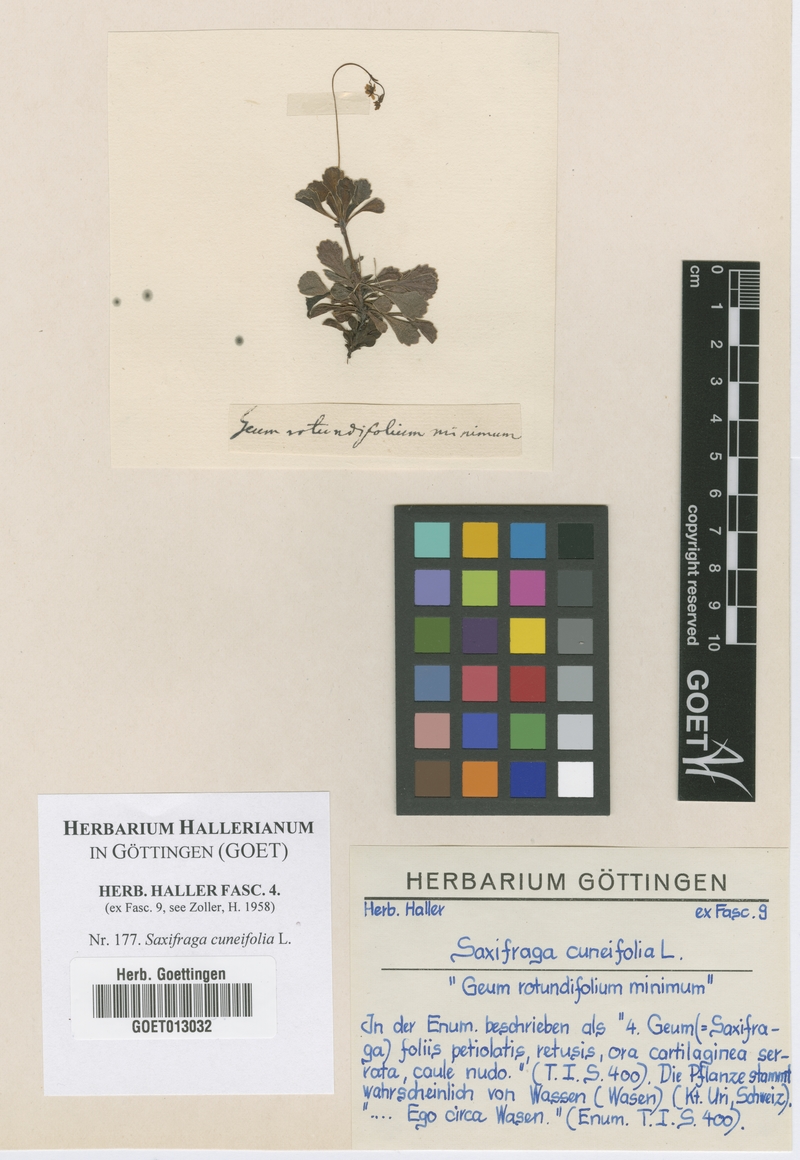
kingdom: Plantae
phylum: Tracheophyta
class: Magnoliopsida
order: Saxifragales
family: Saxifragaceae
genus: Saxifraga
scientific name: Saxifraga cuneifolia
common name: Lesser londonpride
